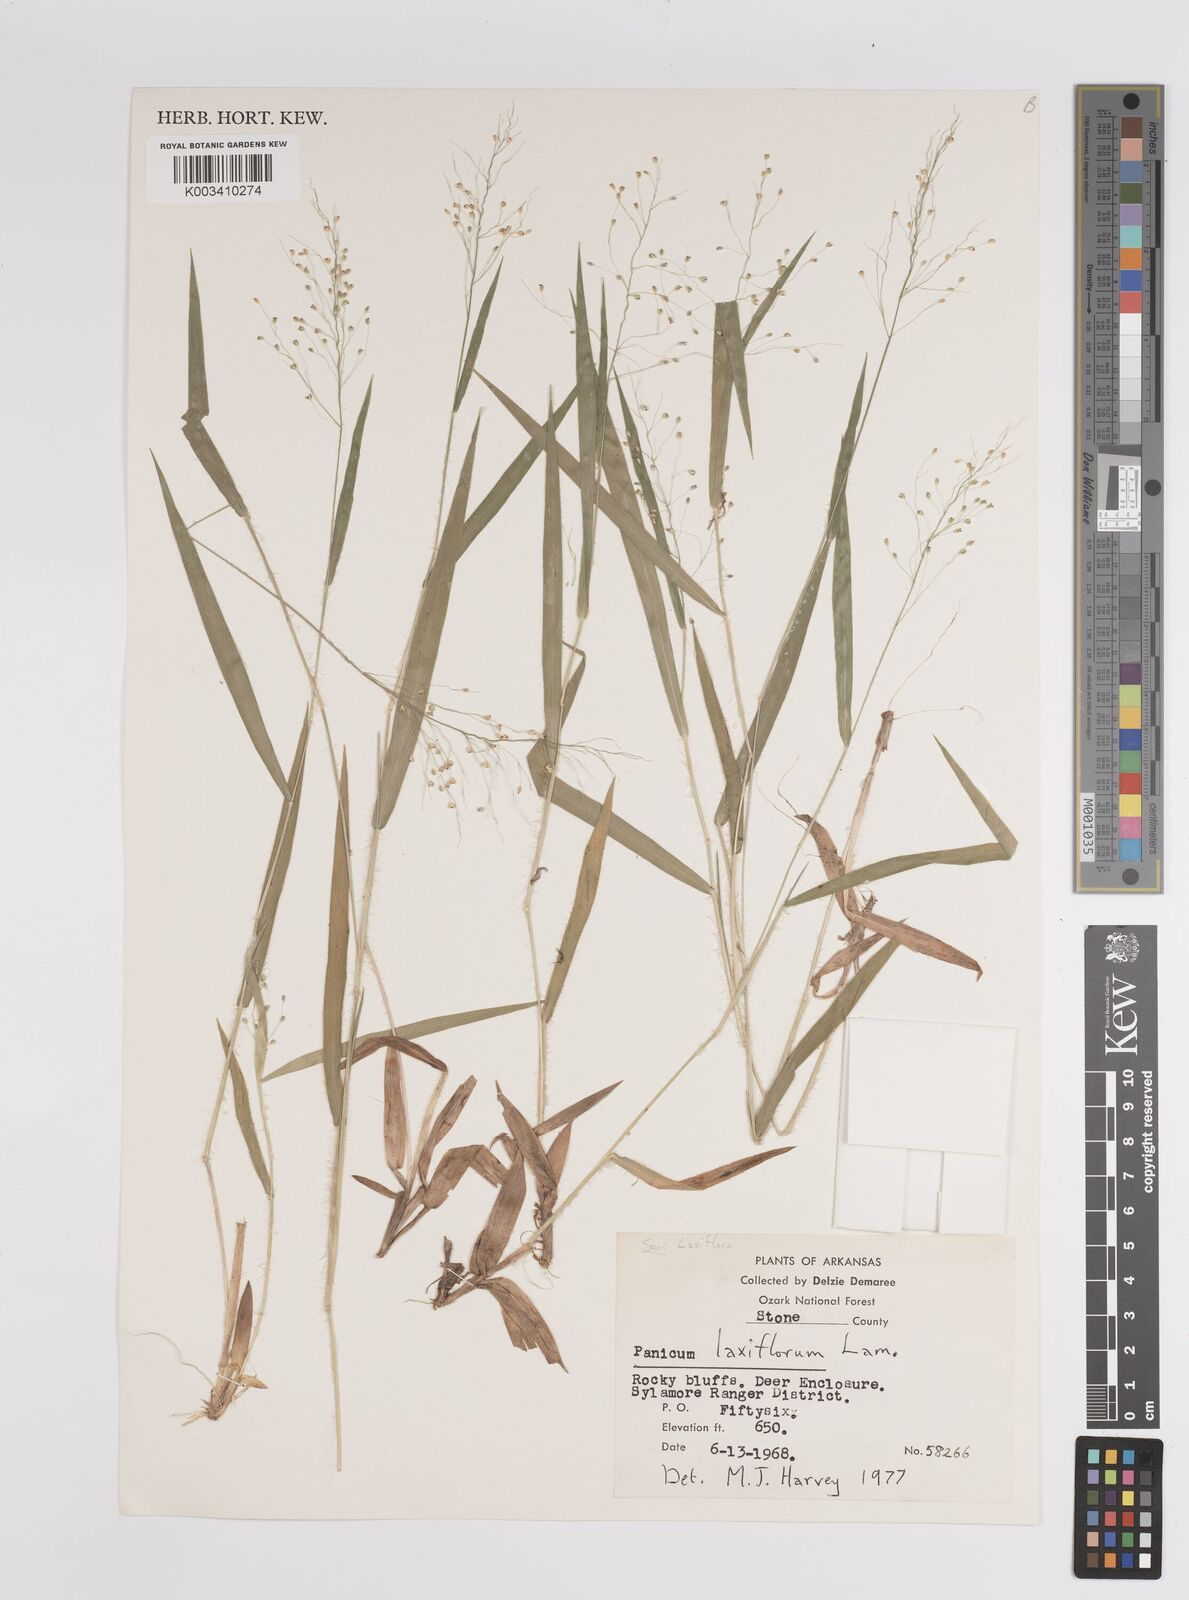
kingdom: Plantae
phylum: Tracheophyta
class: Liliopsida
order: Poales
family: Poaceae
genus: Dichanthelium
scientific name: Dichanthelium laxiflorum
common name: Soft-tuft panic grass
